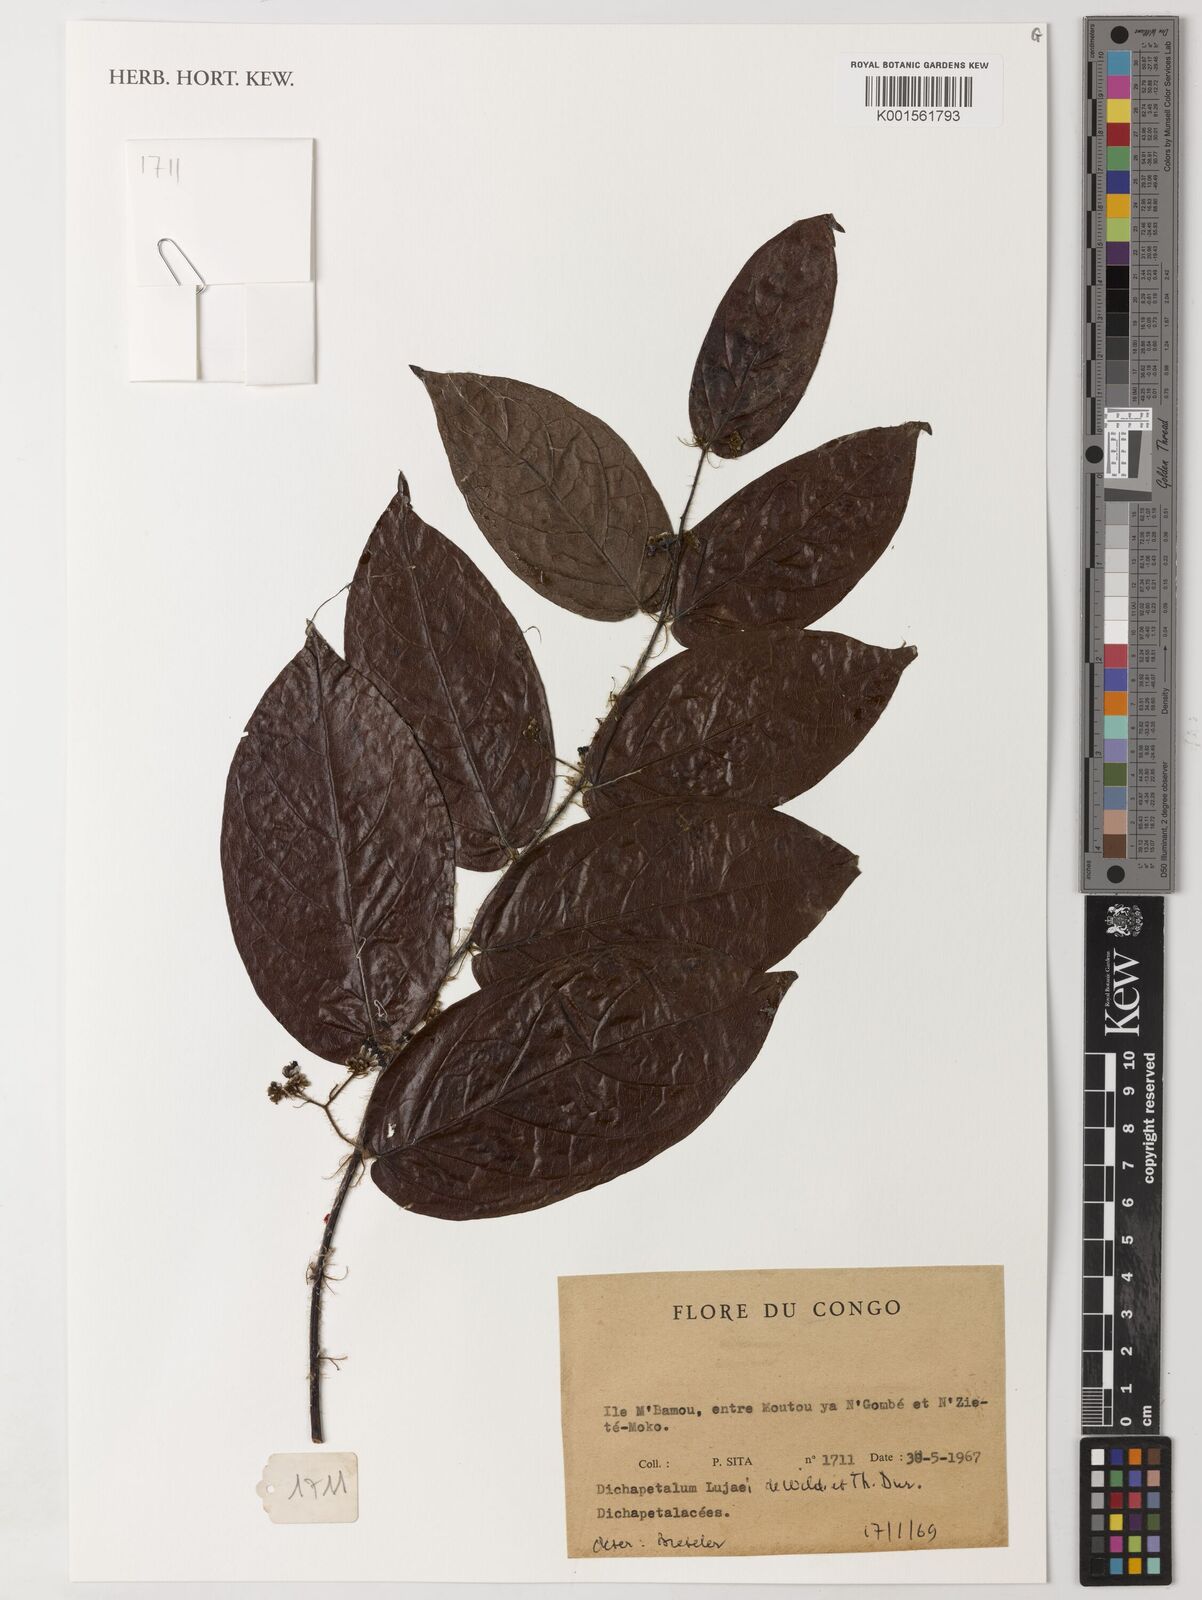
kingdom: Plantae
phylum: Tracheophyta
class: Magnoliopsida
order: Malpighiales
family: Dichapetalaceae
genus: Dichapetalum
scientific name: Dichapetalum lujae
